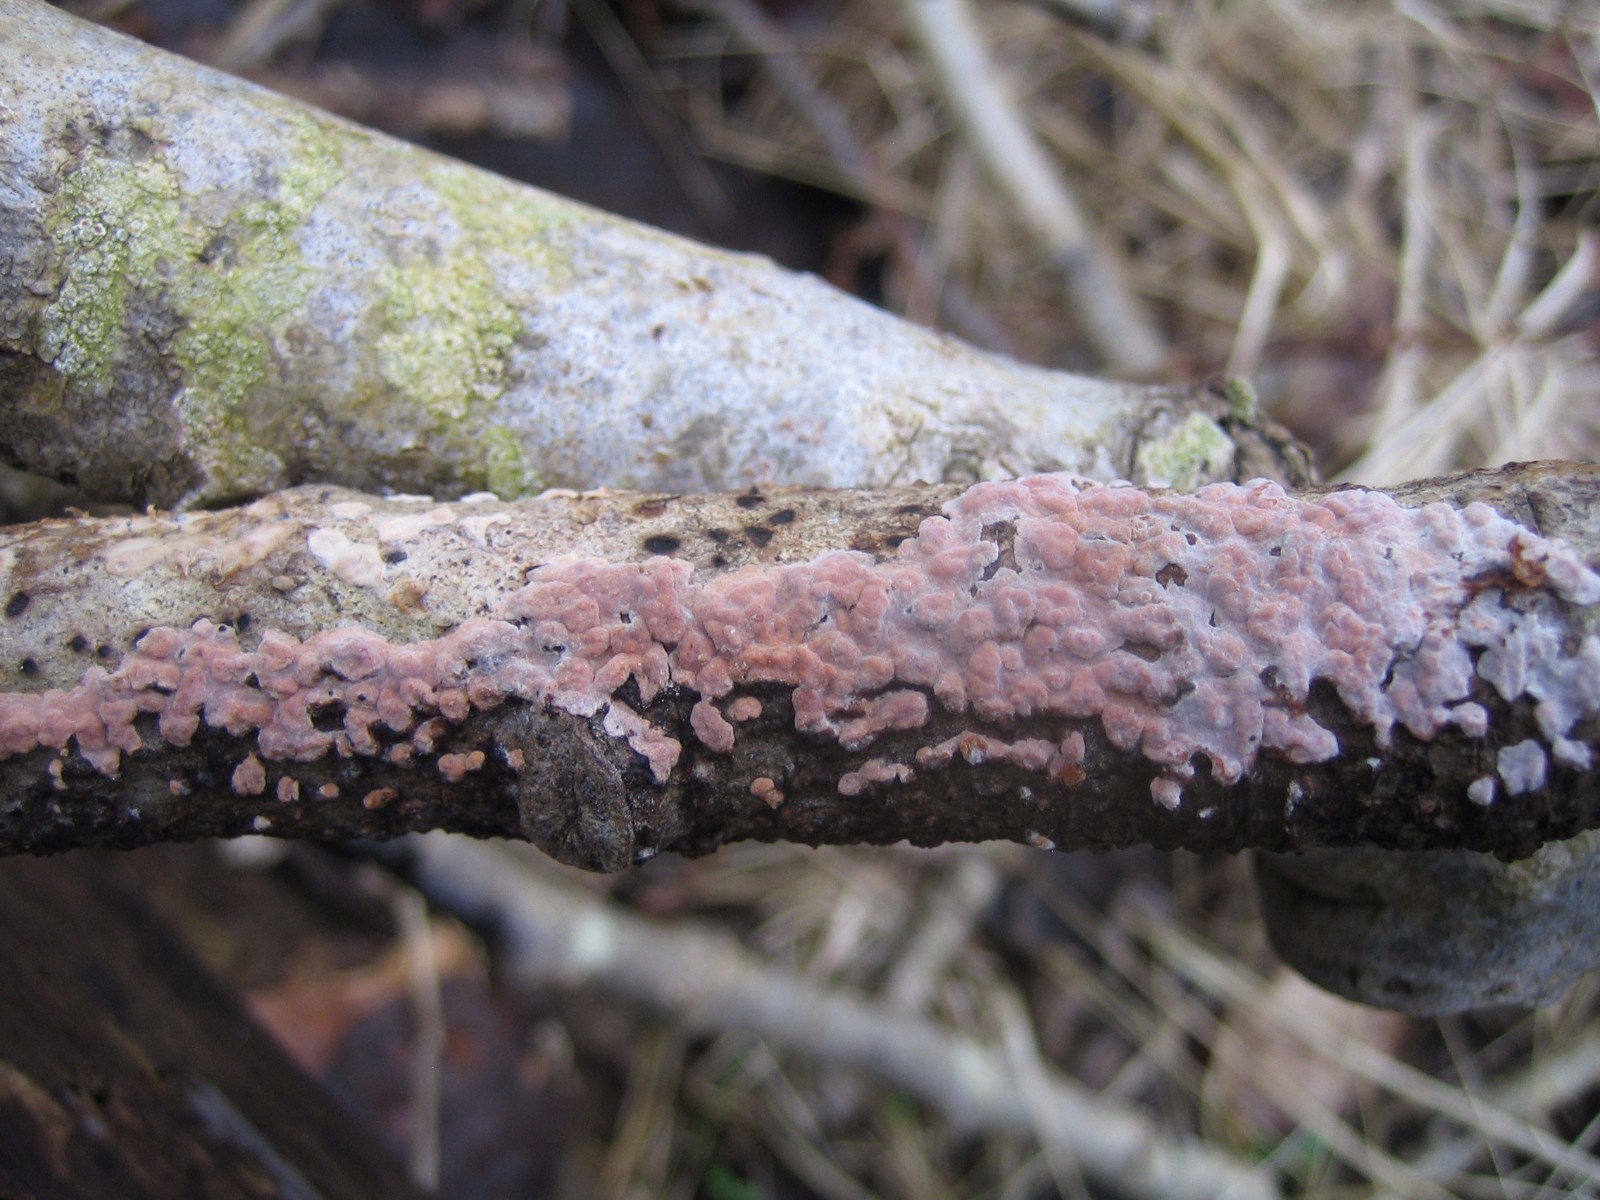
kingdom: Fungi
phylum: Basidiomycota
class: Agaricomycetes
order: Russulales
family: Peniophoraceae
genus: Peniophora
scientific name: Peniophora polygonia
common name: polygon-voksskind
